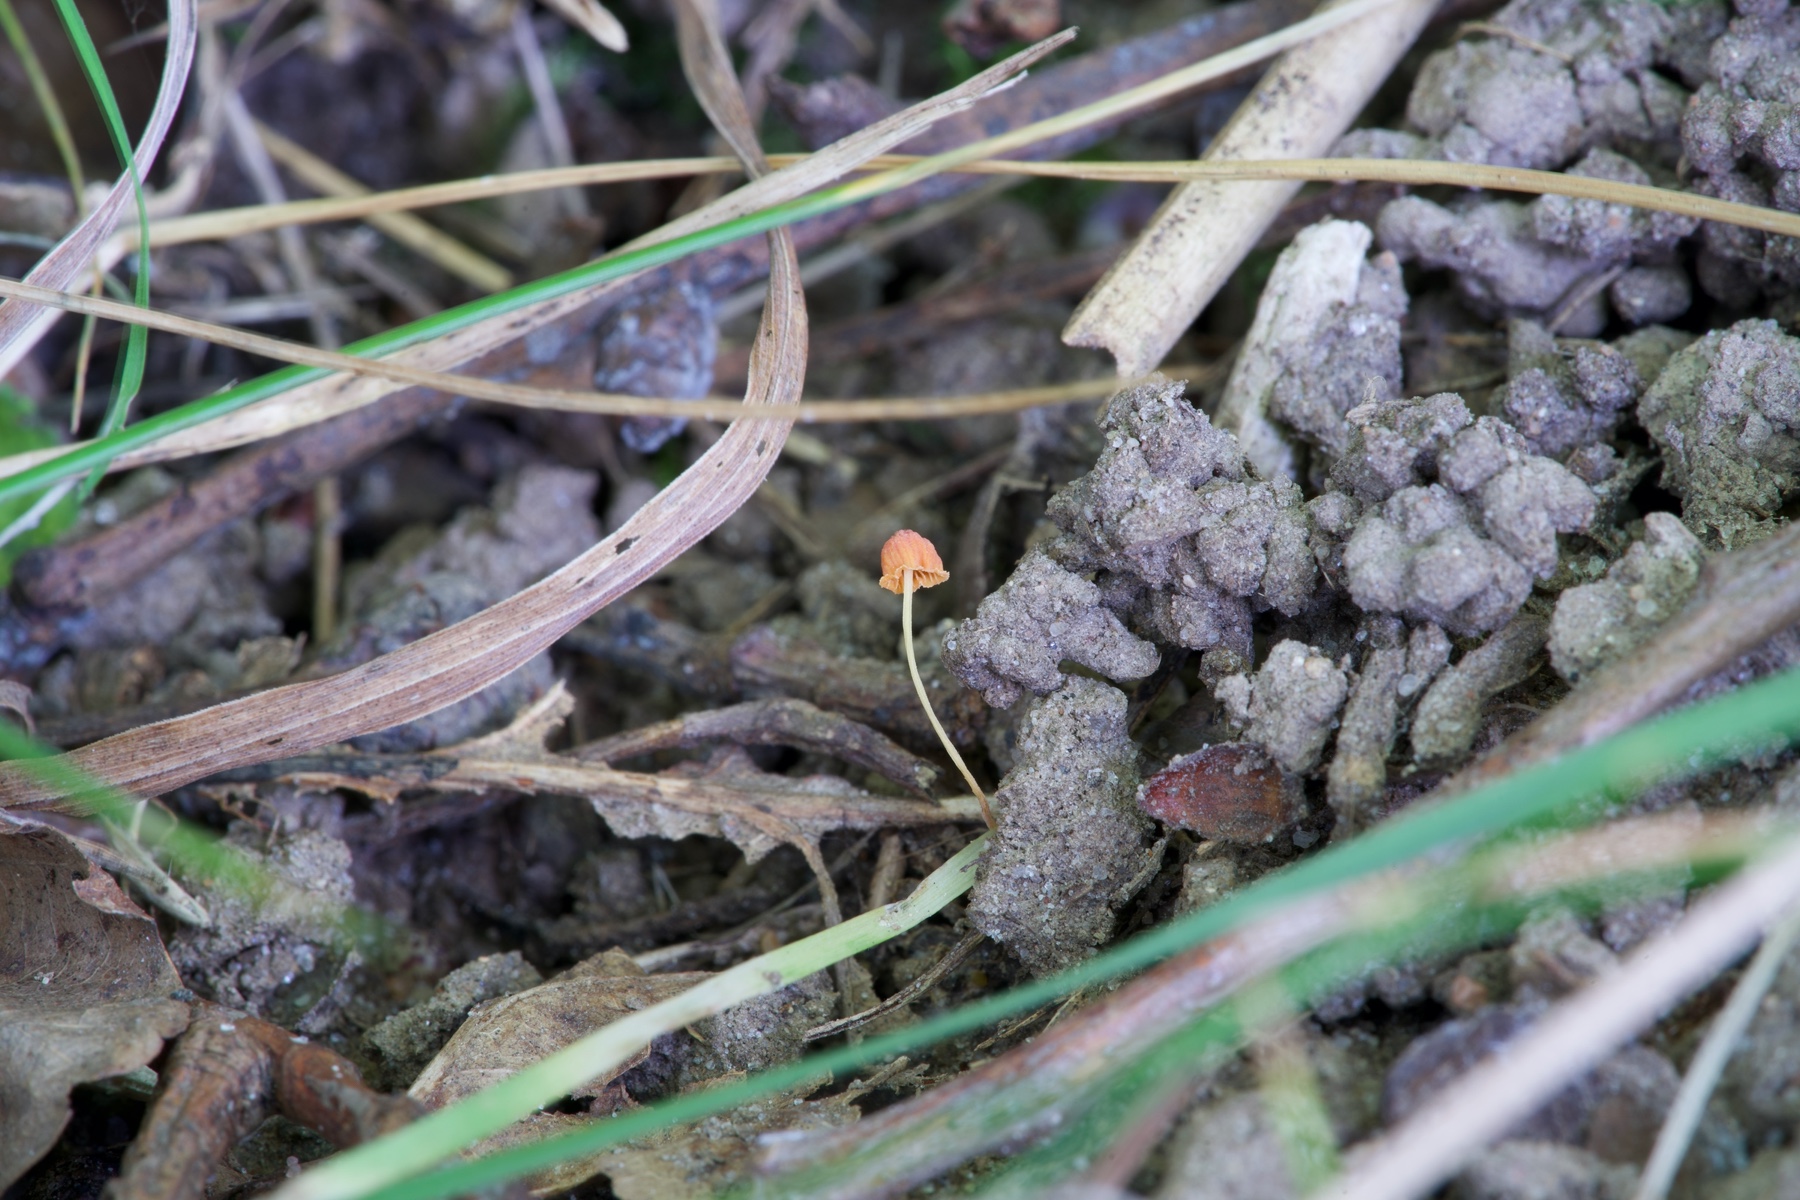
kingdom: Fungi
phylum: Basidiomycota
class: Agaricomycetes
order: Agaricales
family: Mycenaceae
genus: Mycena
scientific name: Mycena acicula
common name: orange huesvamp
